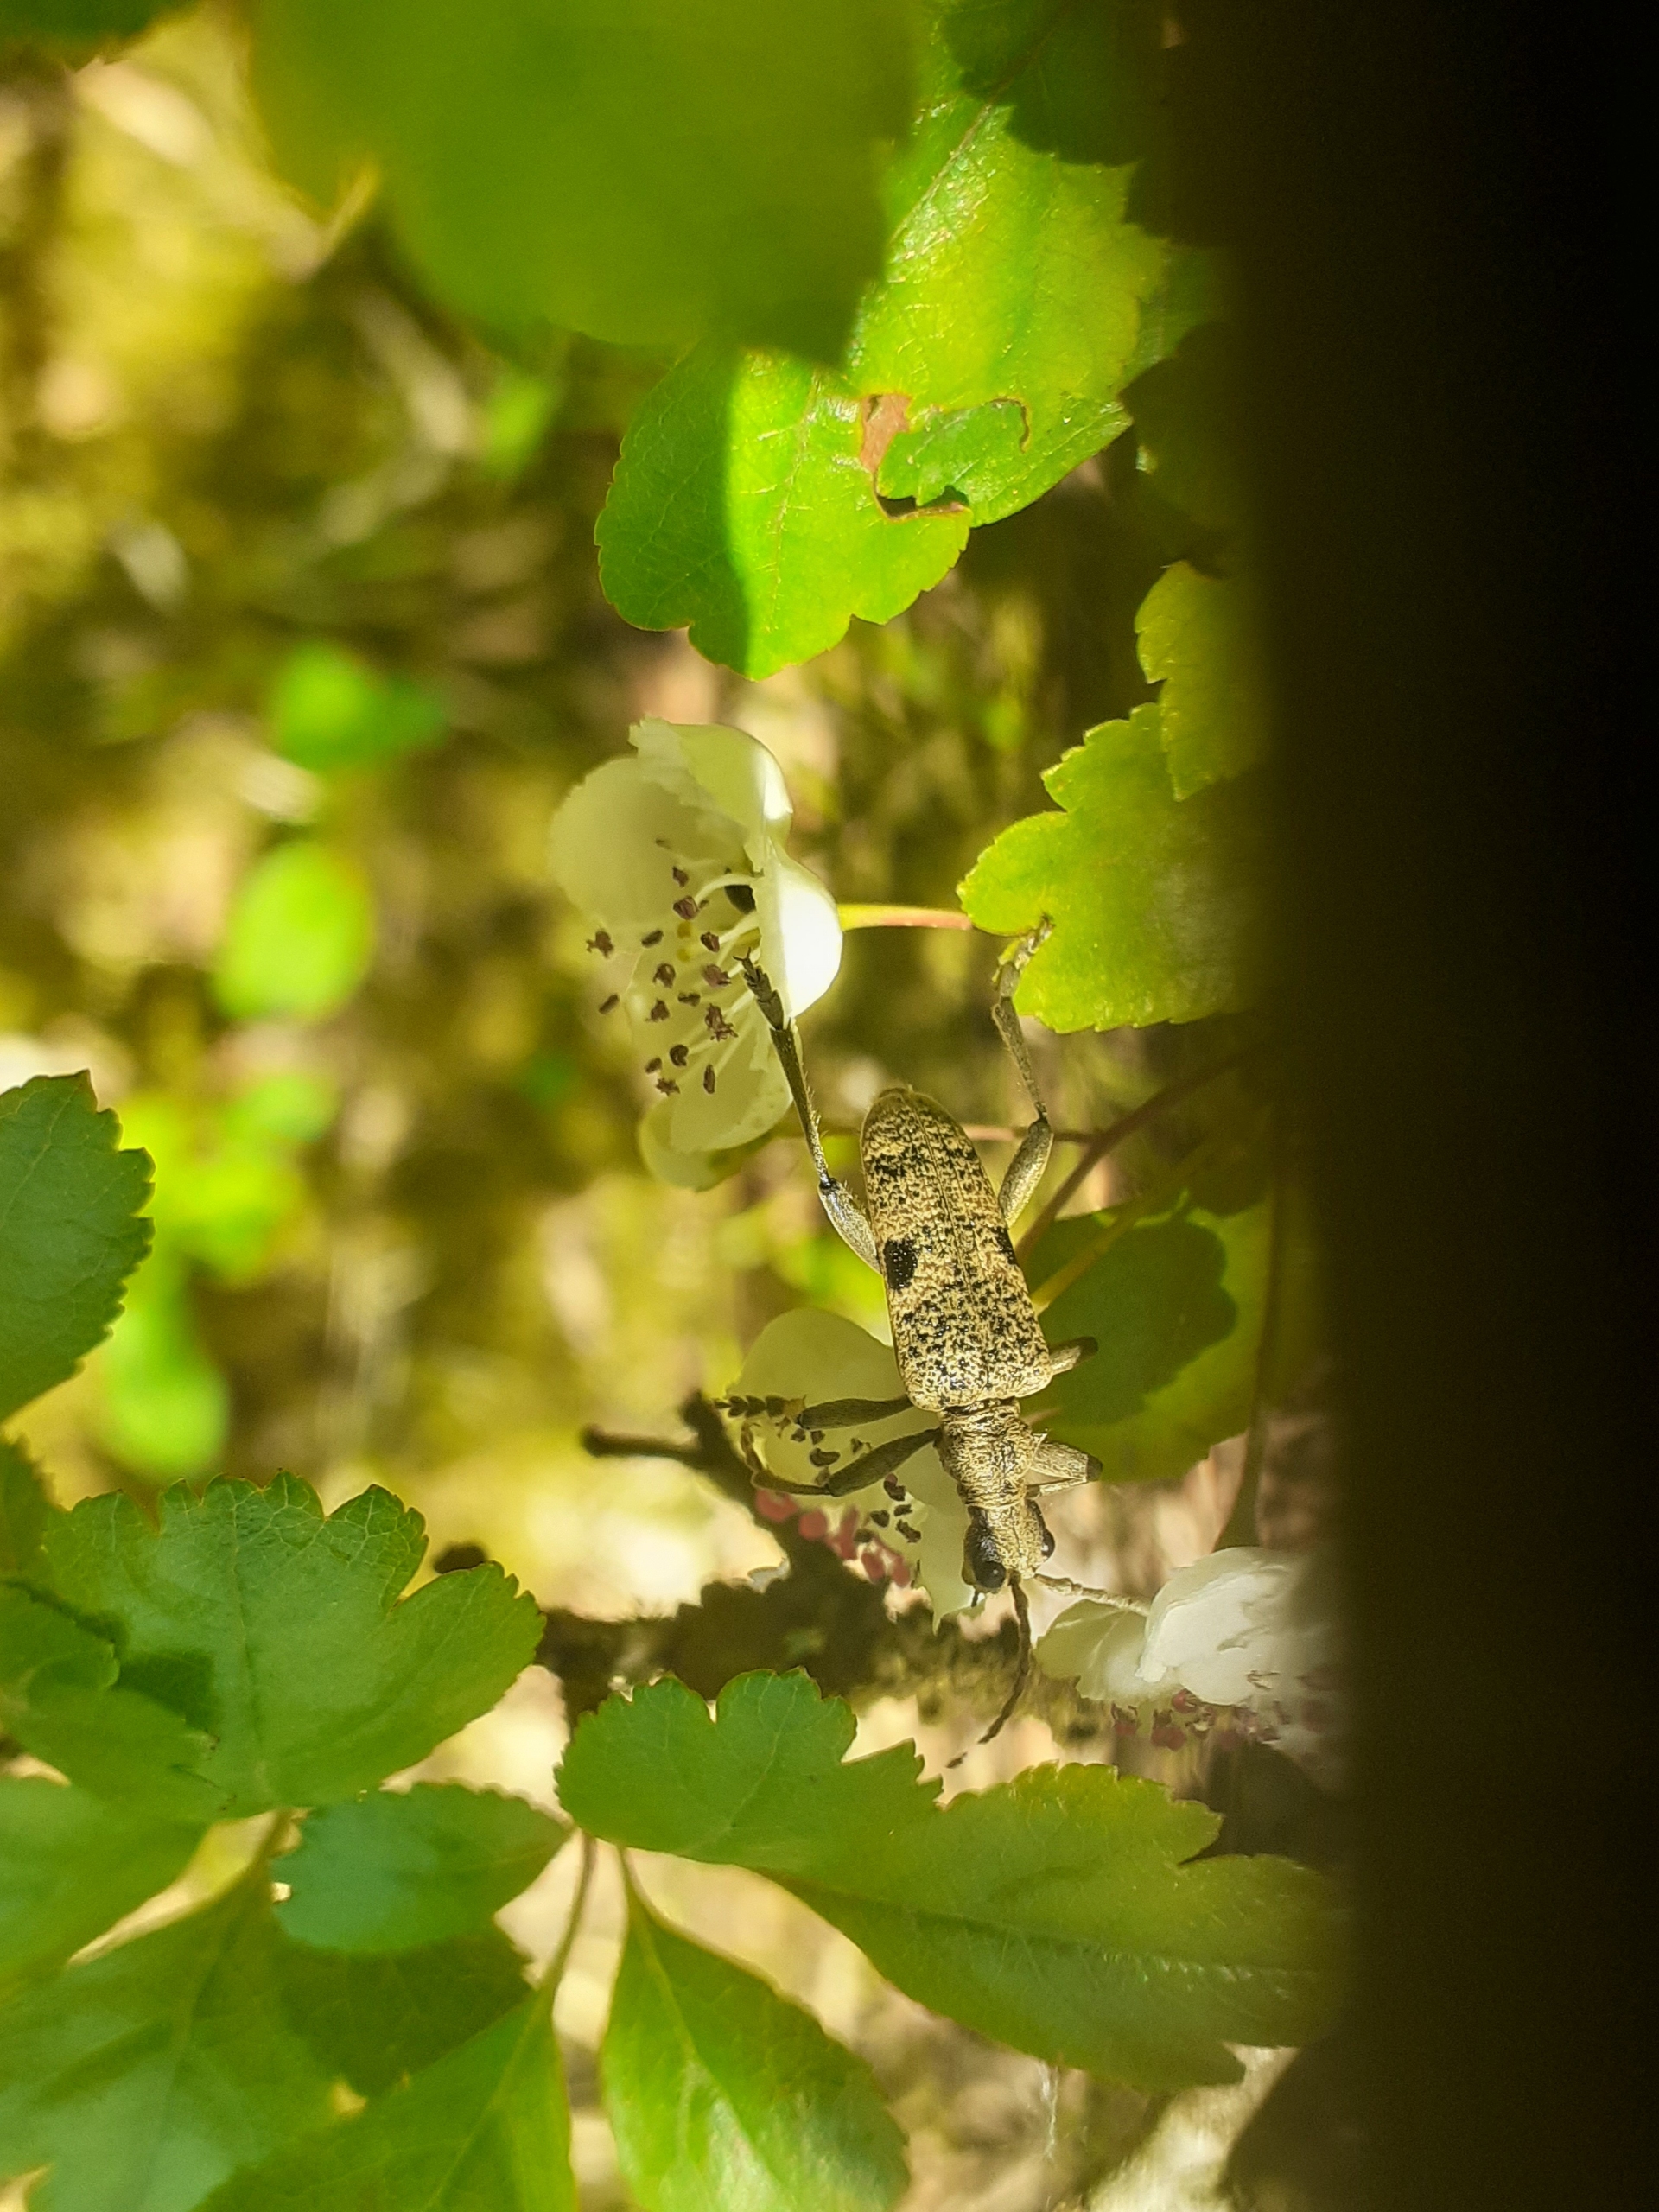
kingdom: Animalia
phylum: Arthropoda
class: Insecta
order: Coleoptera
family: Cerambycidae
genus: Rhagium
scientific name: Rhagium mordax
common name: Blankplettet tandbuk
